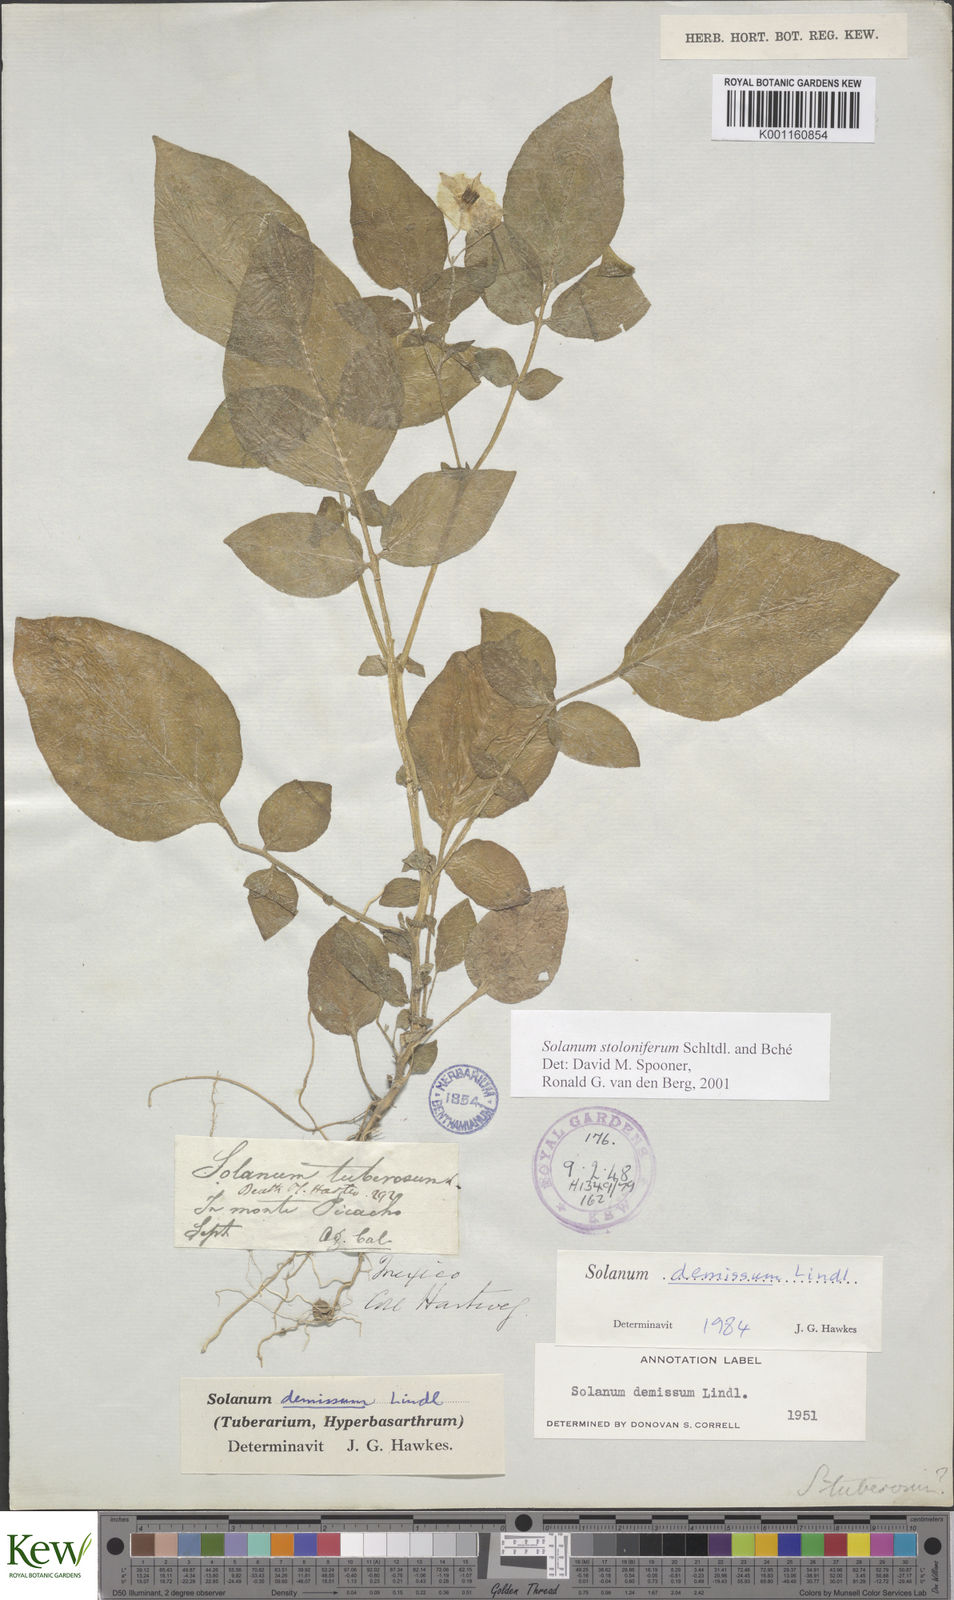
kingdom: Plantae
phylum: Tracheophyta
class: Magnoliopsida
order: Solanales
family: Solanaceae
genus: Solanum
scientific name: Solanum stoloniferum
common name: Fendler's nighshade
